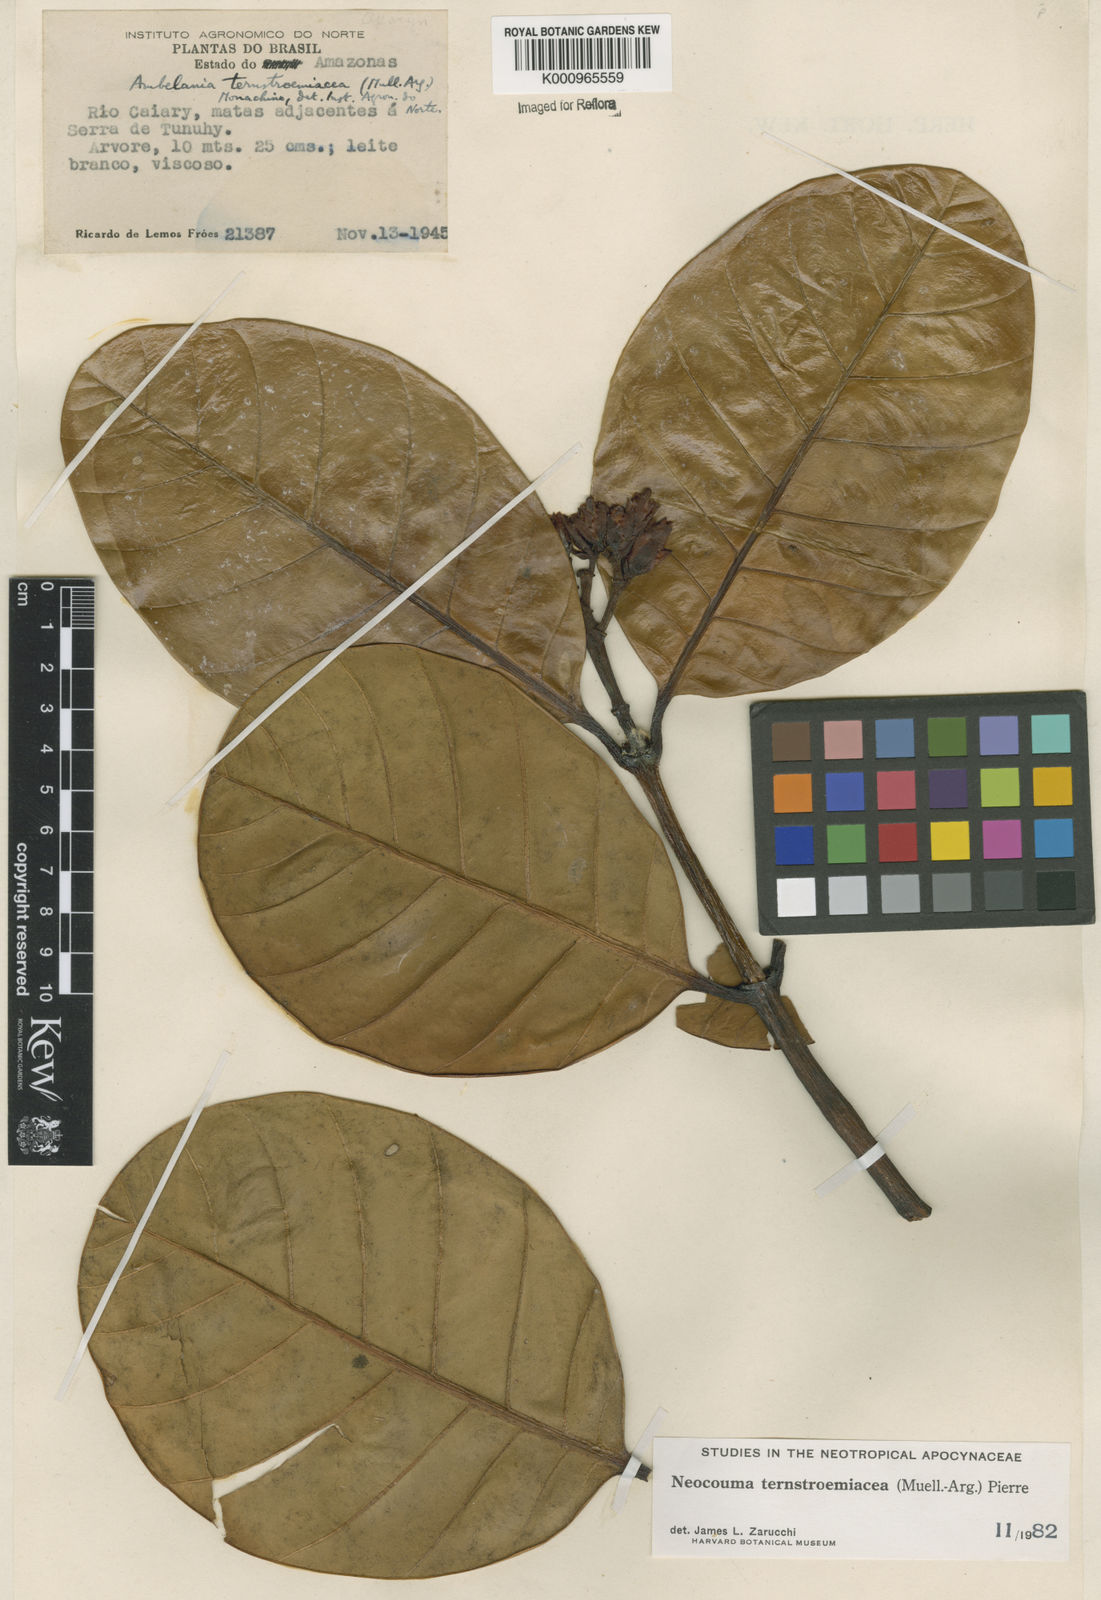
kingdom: Plantae
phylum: Tracheophyta
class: Magnoliopsida
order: Gentianales
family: Apocynaceae
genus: Neocouma
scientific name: Neocouma
